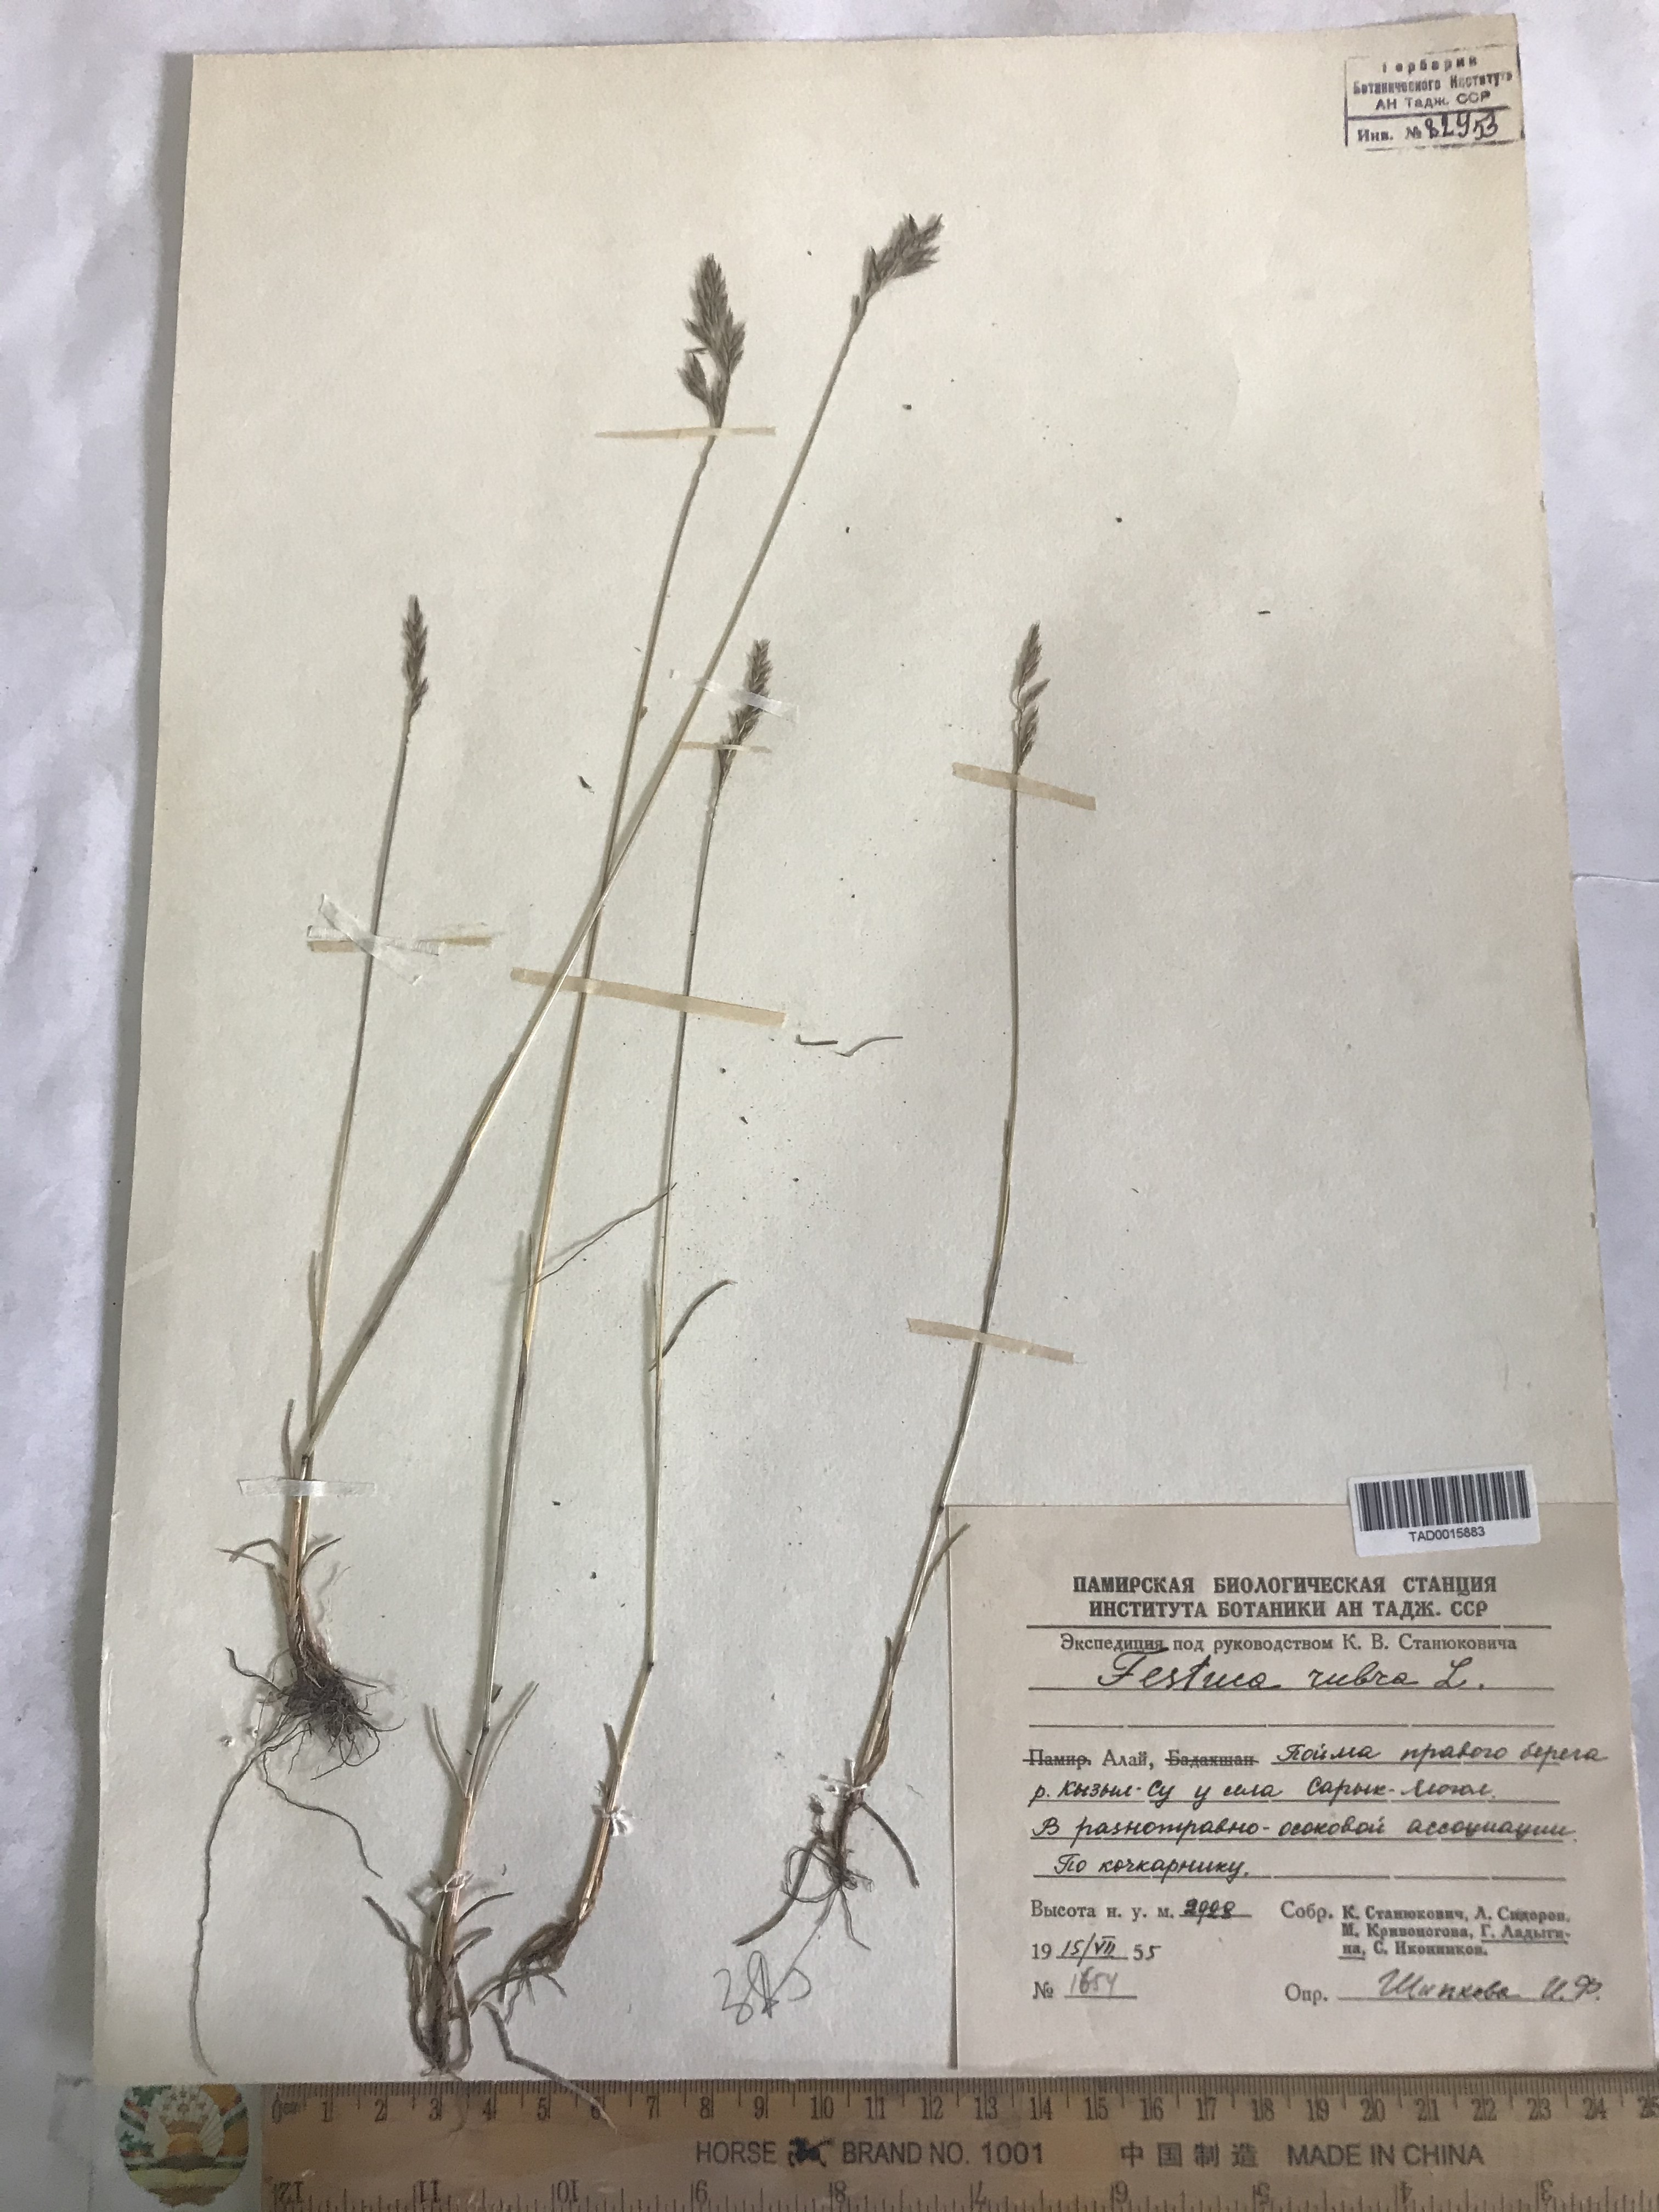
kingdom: Plantae
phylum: Tracheophyta
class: Liliopsida
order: Poales
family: Poaceae
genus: Festuca
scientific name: Festuca rubra
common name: Red fescue
